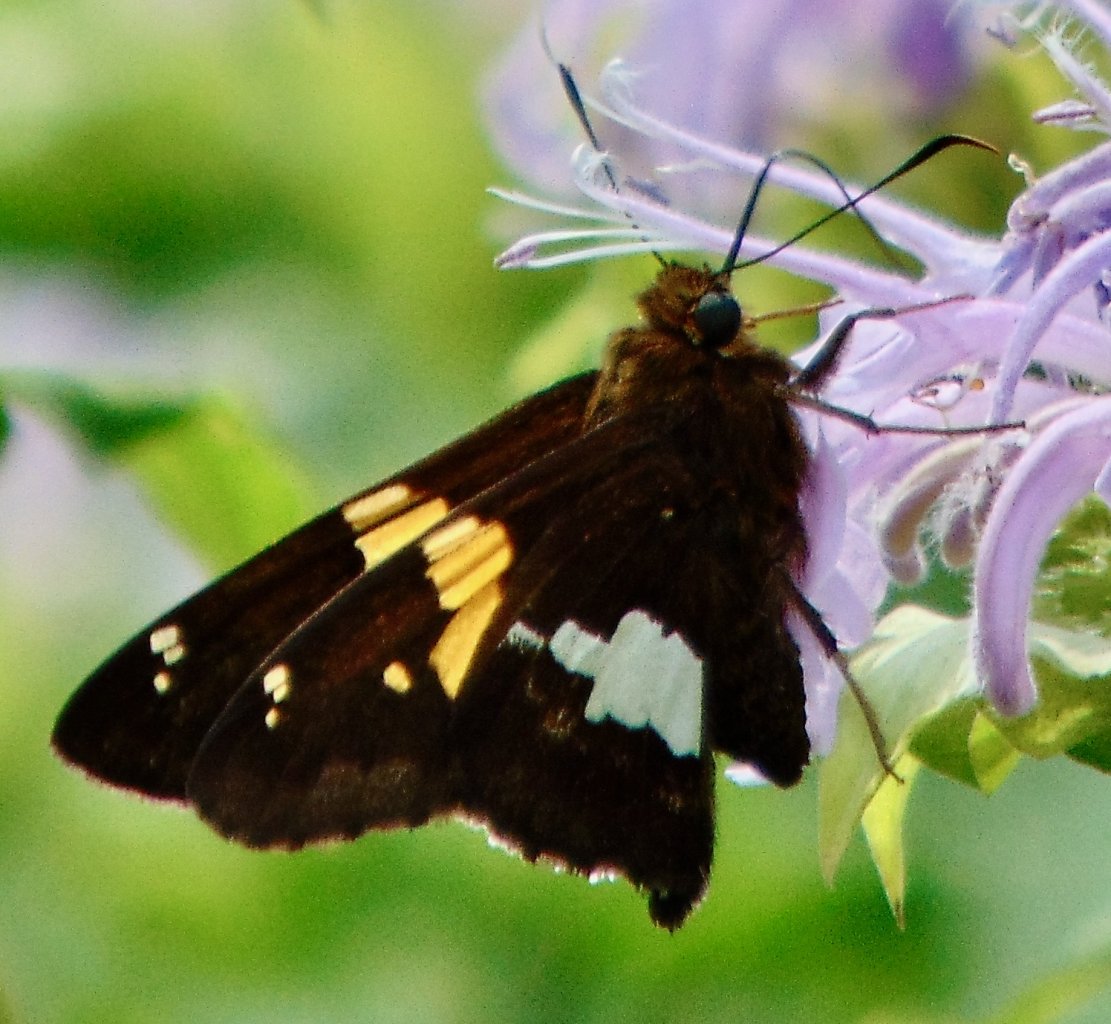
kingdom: Animalia
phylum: Arthropoda
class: Insecta
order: Lepidoptera
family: Hesperiidae
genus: Epargyreus
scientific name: Epargyreus clarus
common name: Silver-spotted Skipper
